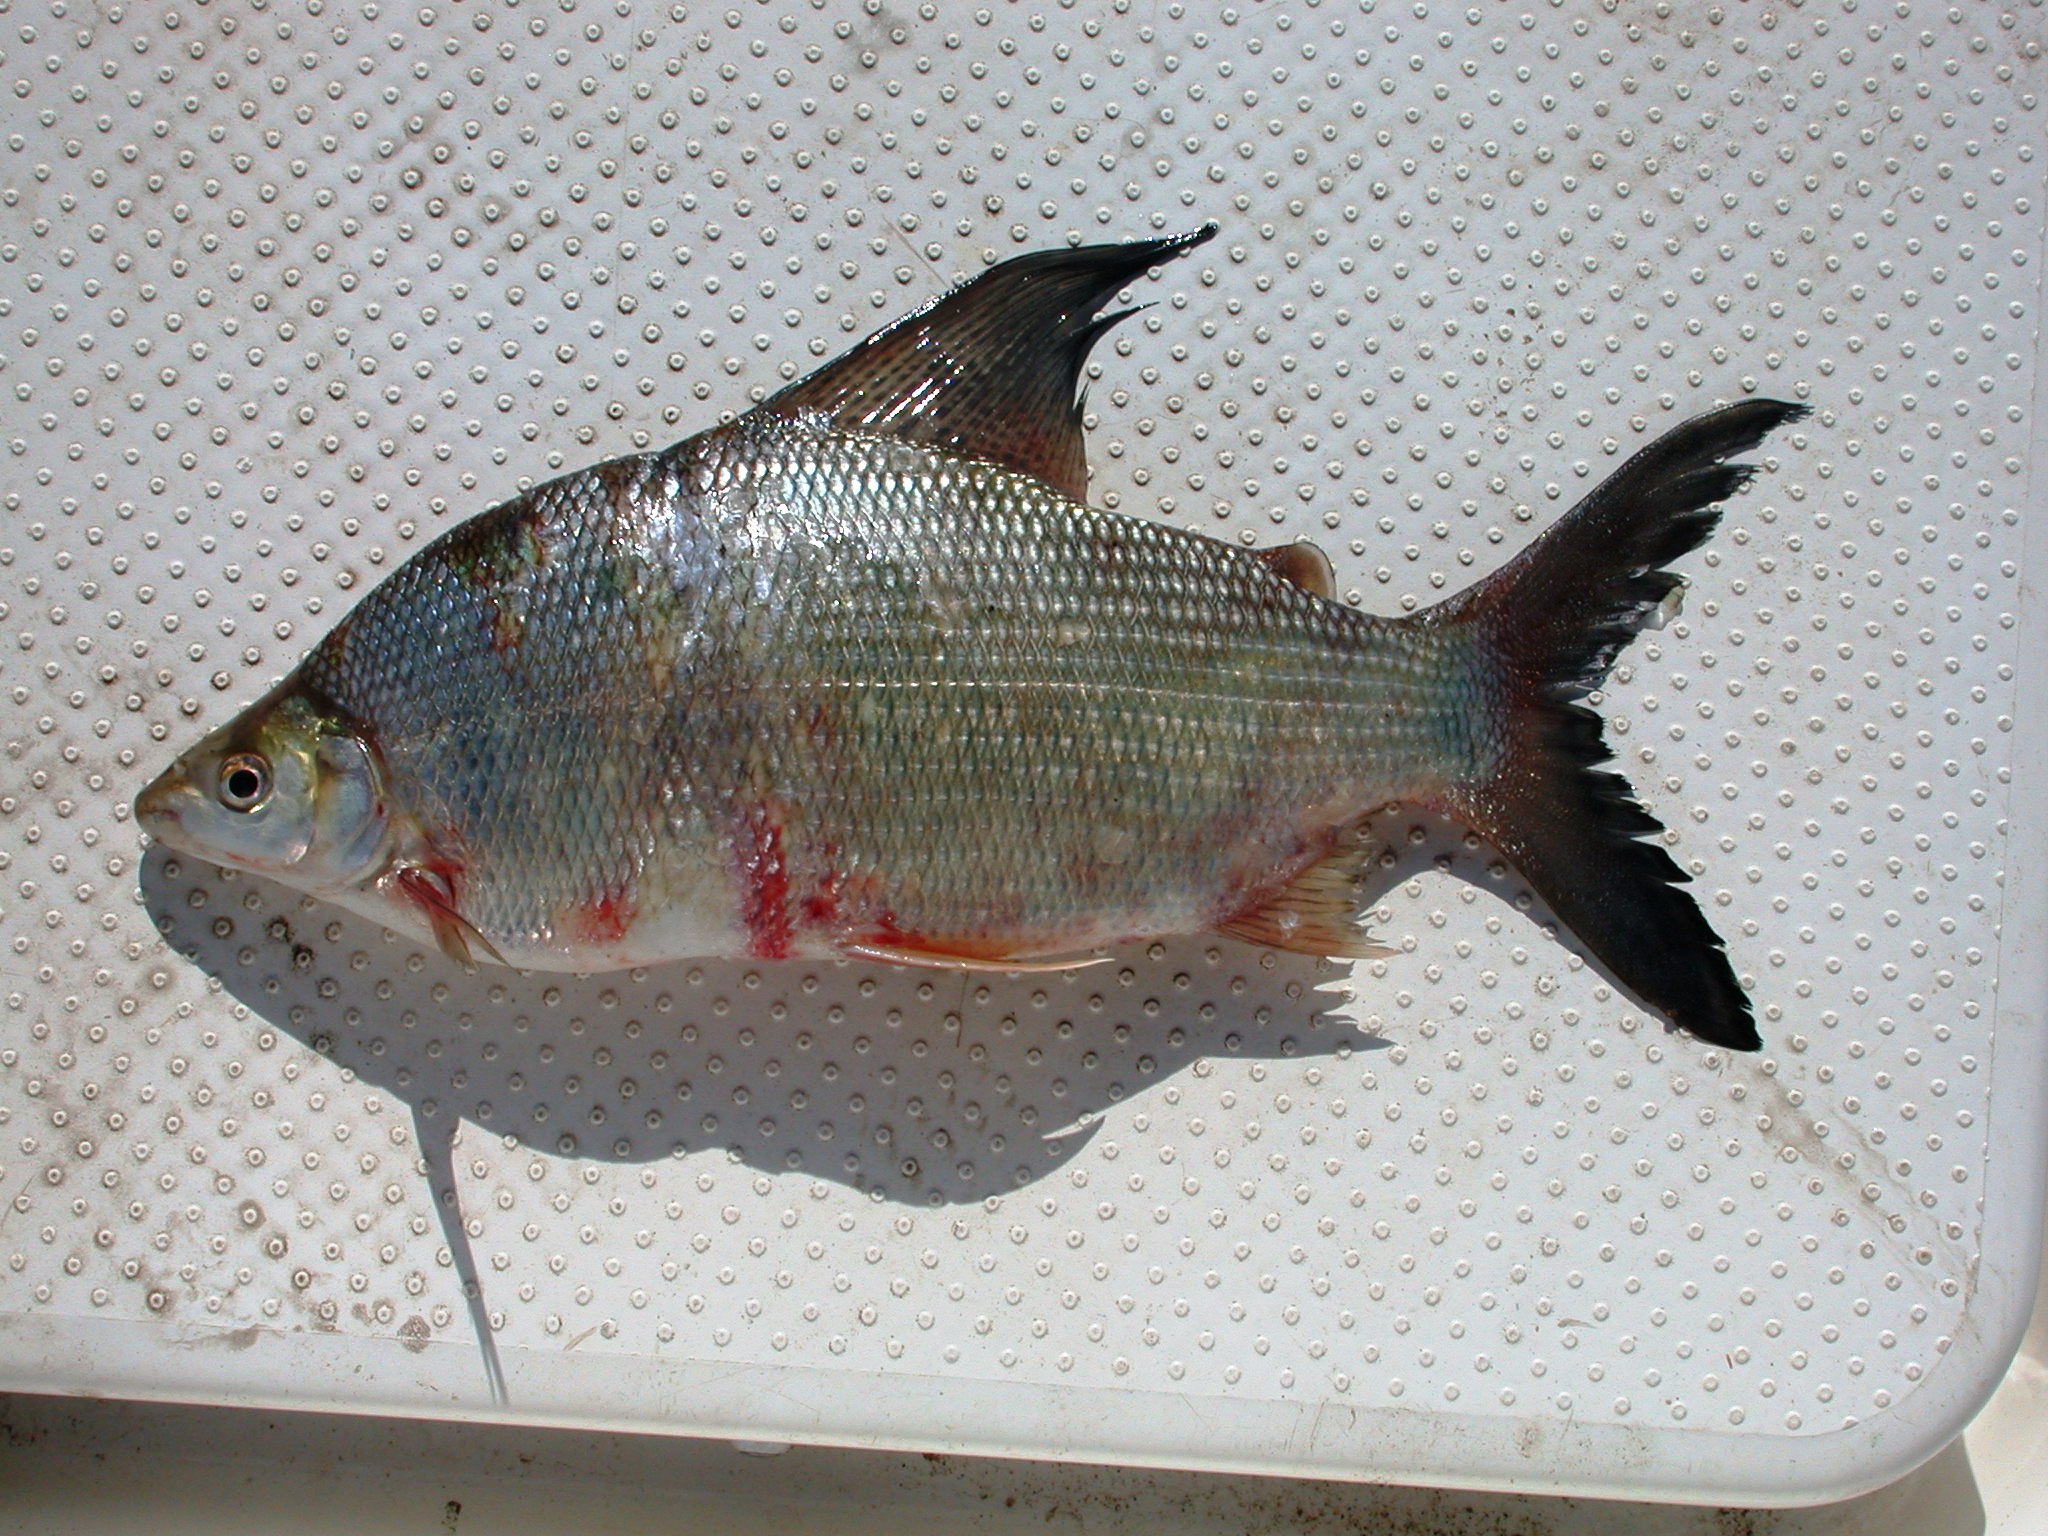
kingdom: Animalia
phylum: Chordata
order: Characiformes
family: Distichodontidae
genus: Distichodus
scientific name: Distichodus schenga
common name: Chessa
